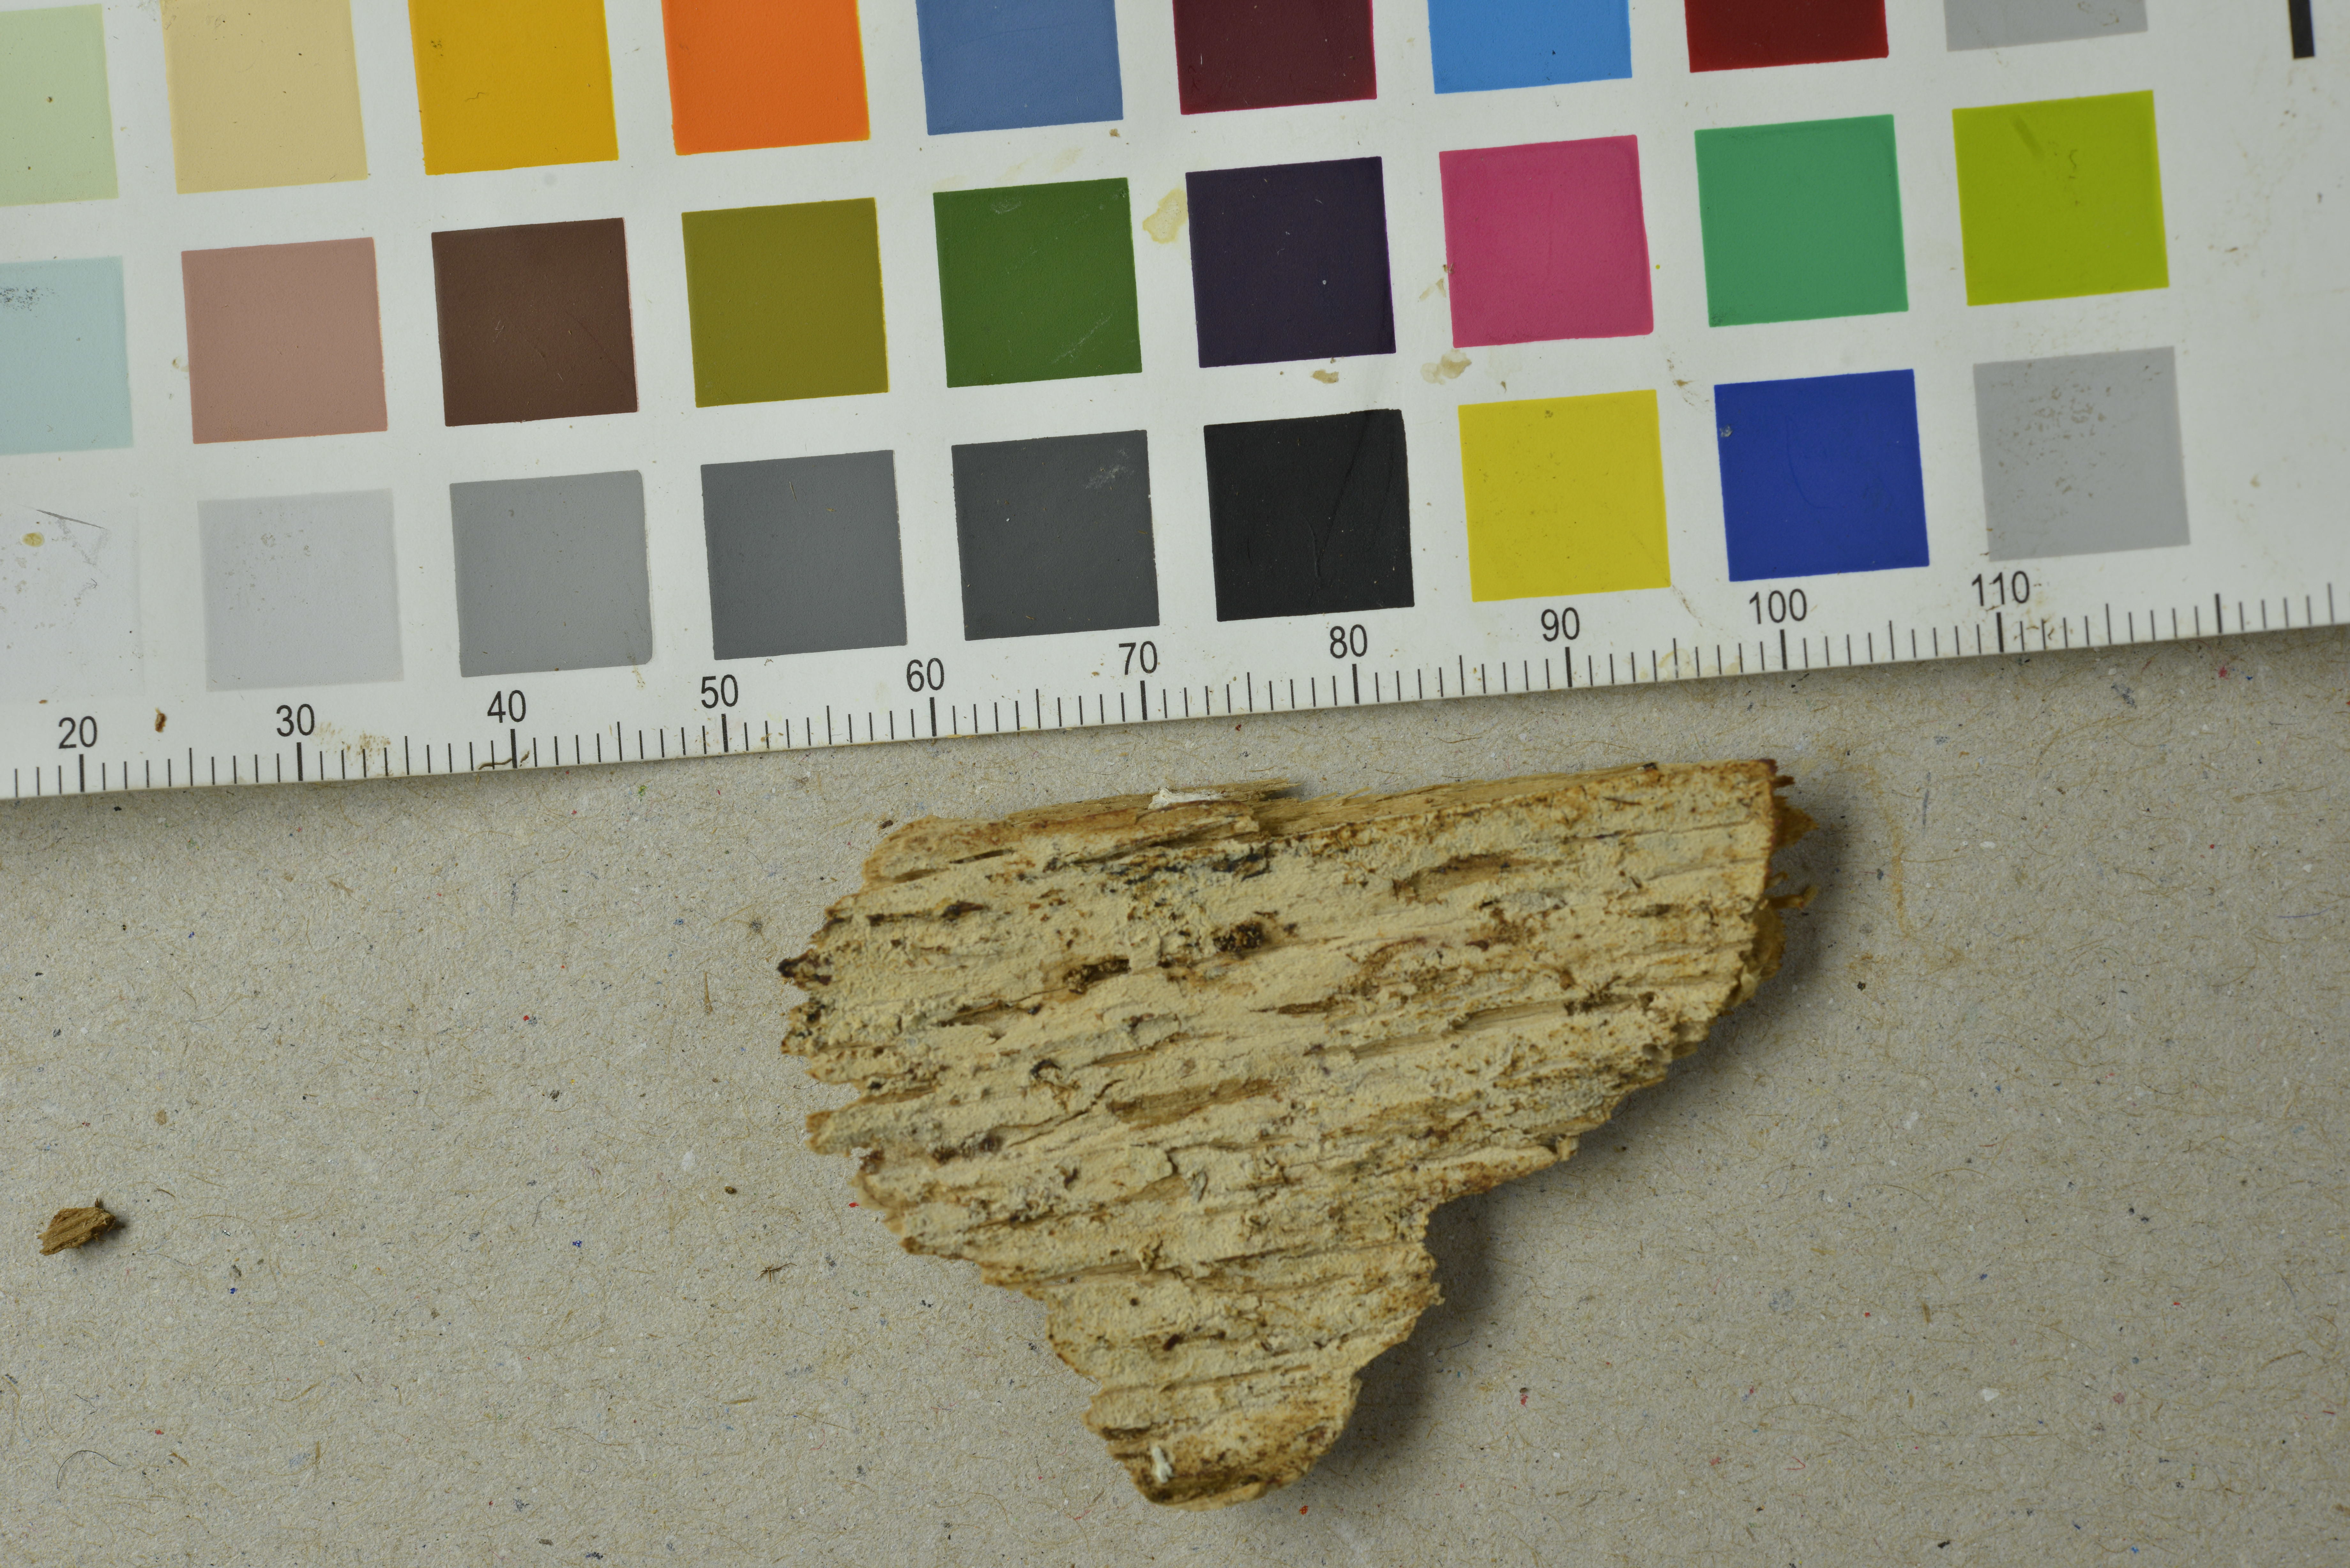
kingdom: Fungi
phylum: Basidiomycota
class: Agaricomycetes
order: Hymenochaetales
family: Hyphodontiaceae
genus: Hyphodontia
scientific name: Hyphodontia alutaria
